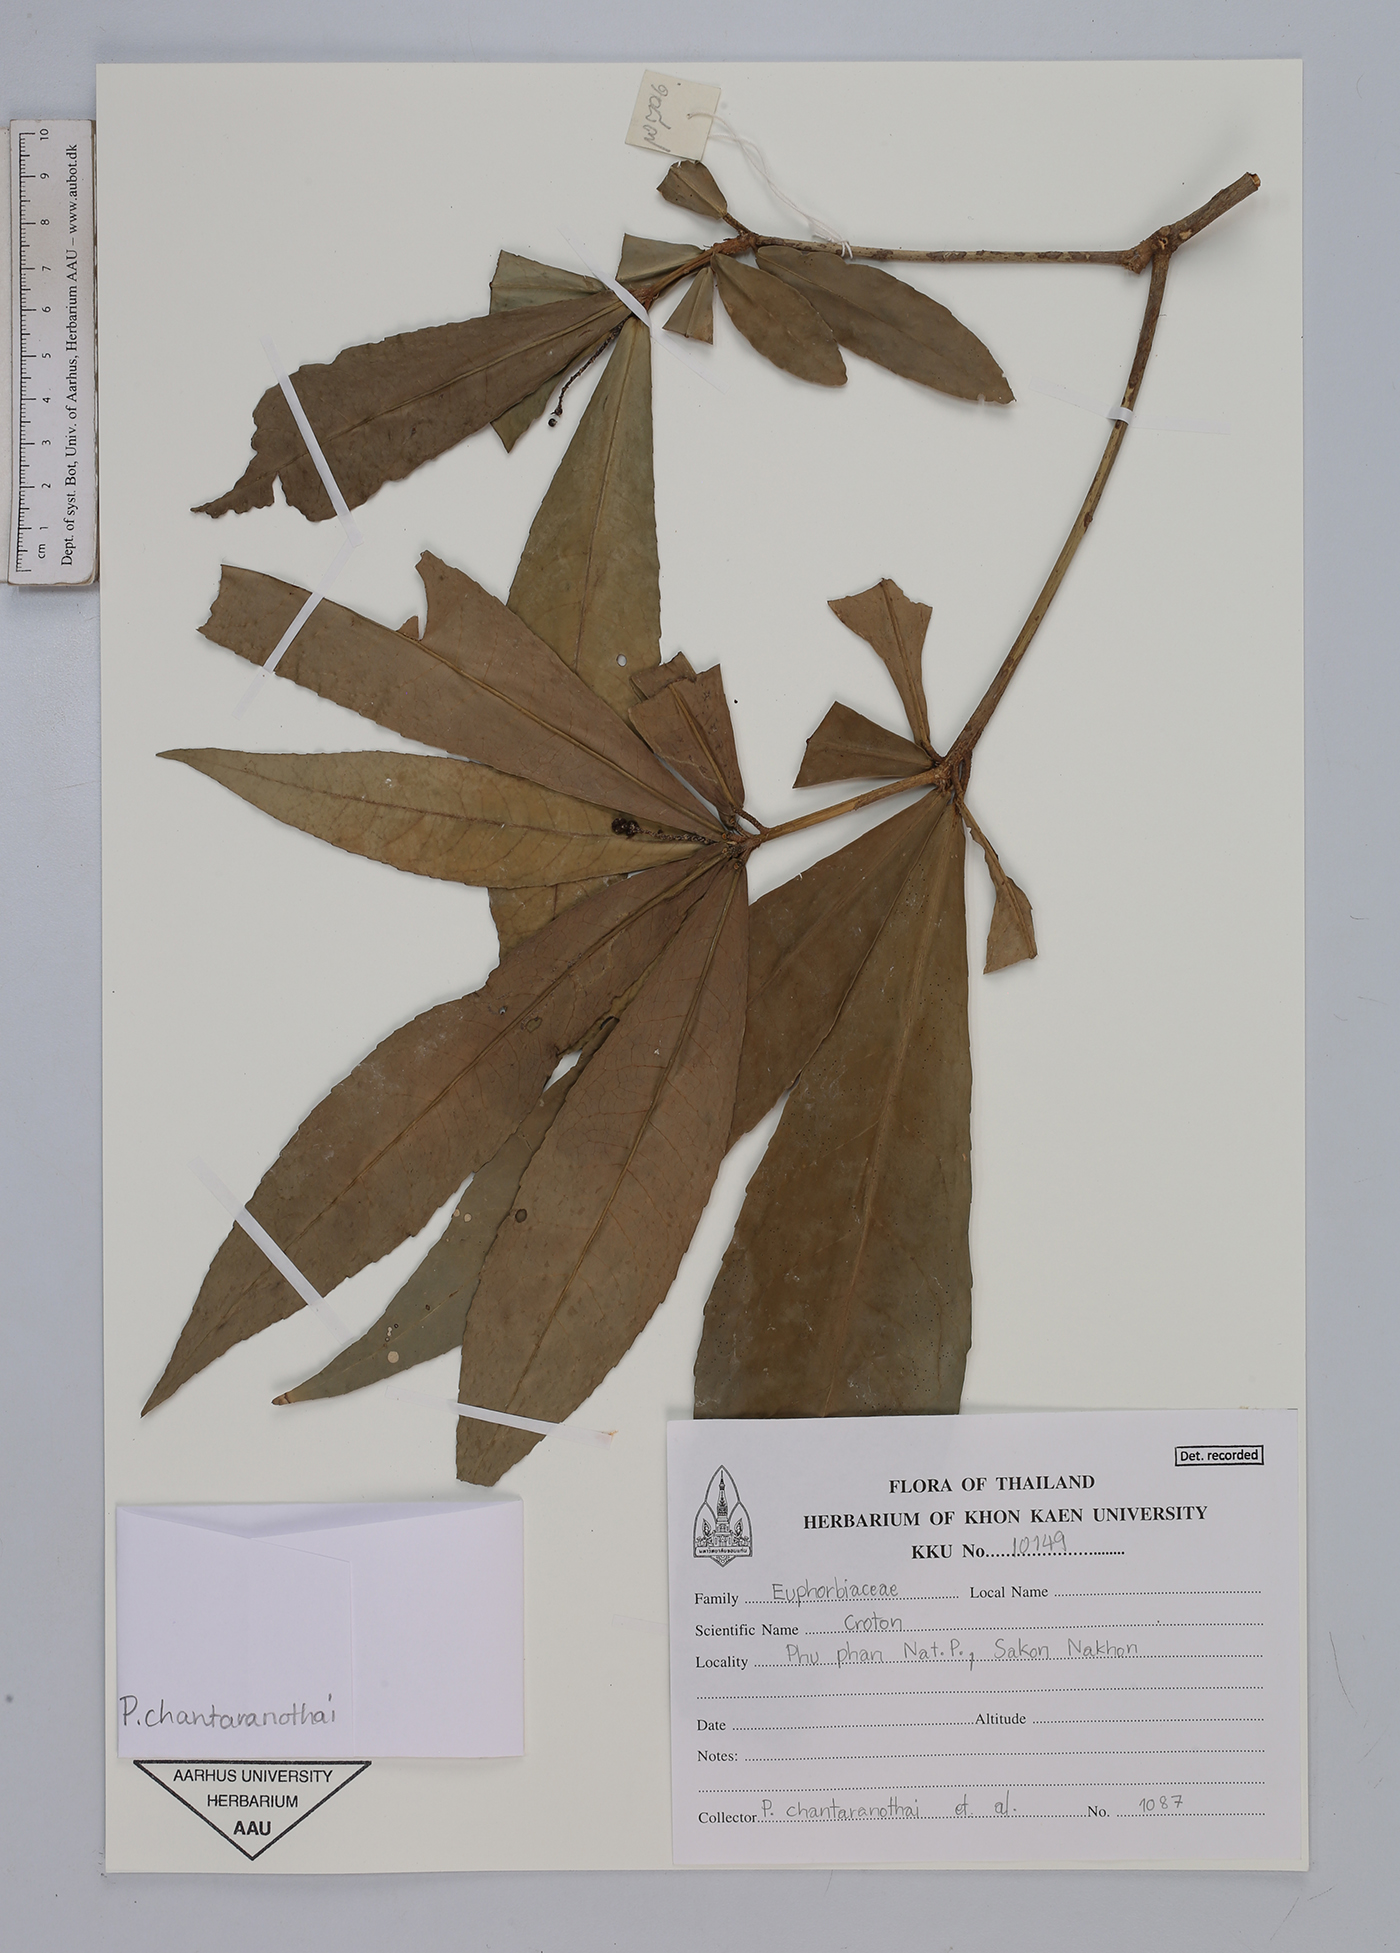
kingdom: Plantae
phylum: Tracheophyta
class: Magnoliopsida
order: Malpighiales
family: Euphorbiaceae
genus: Croton
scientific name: Croton
